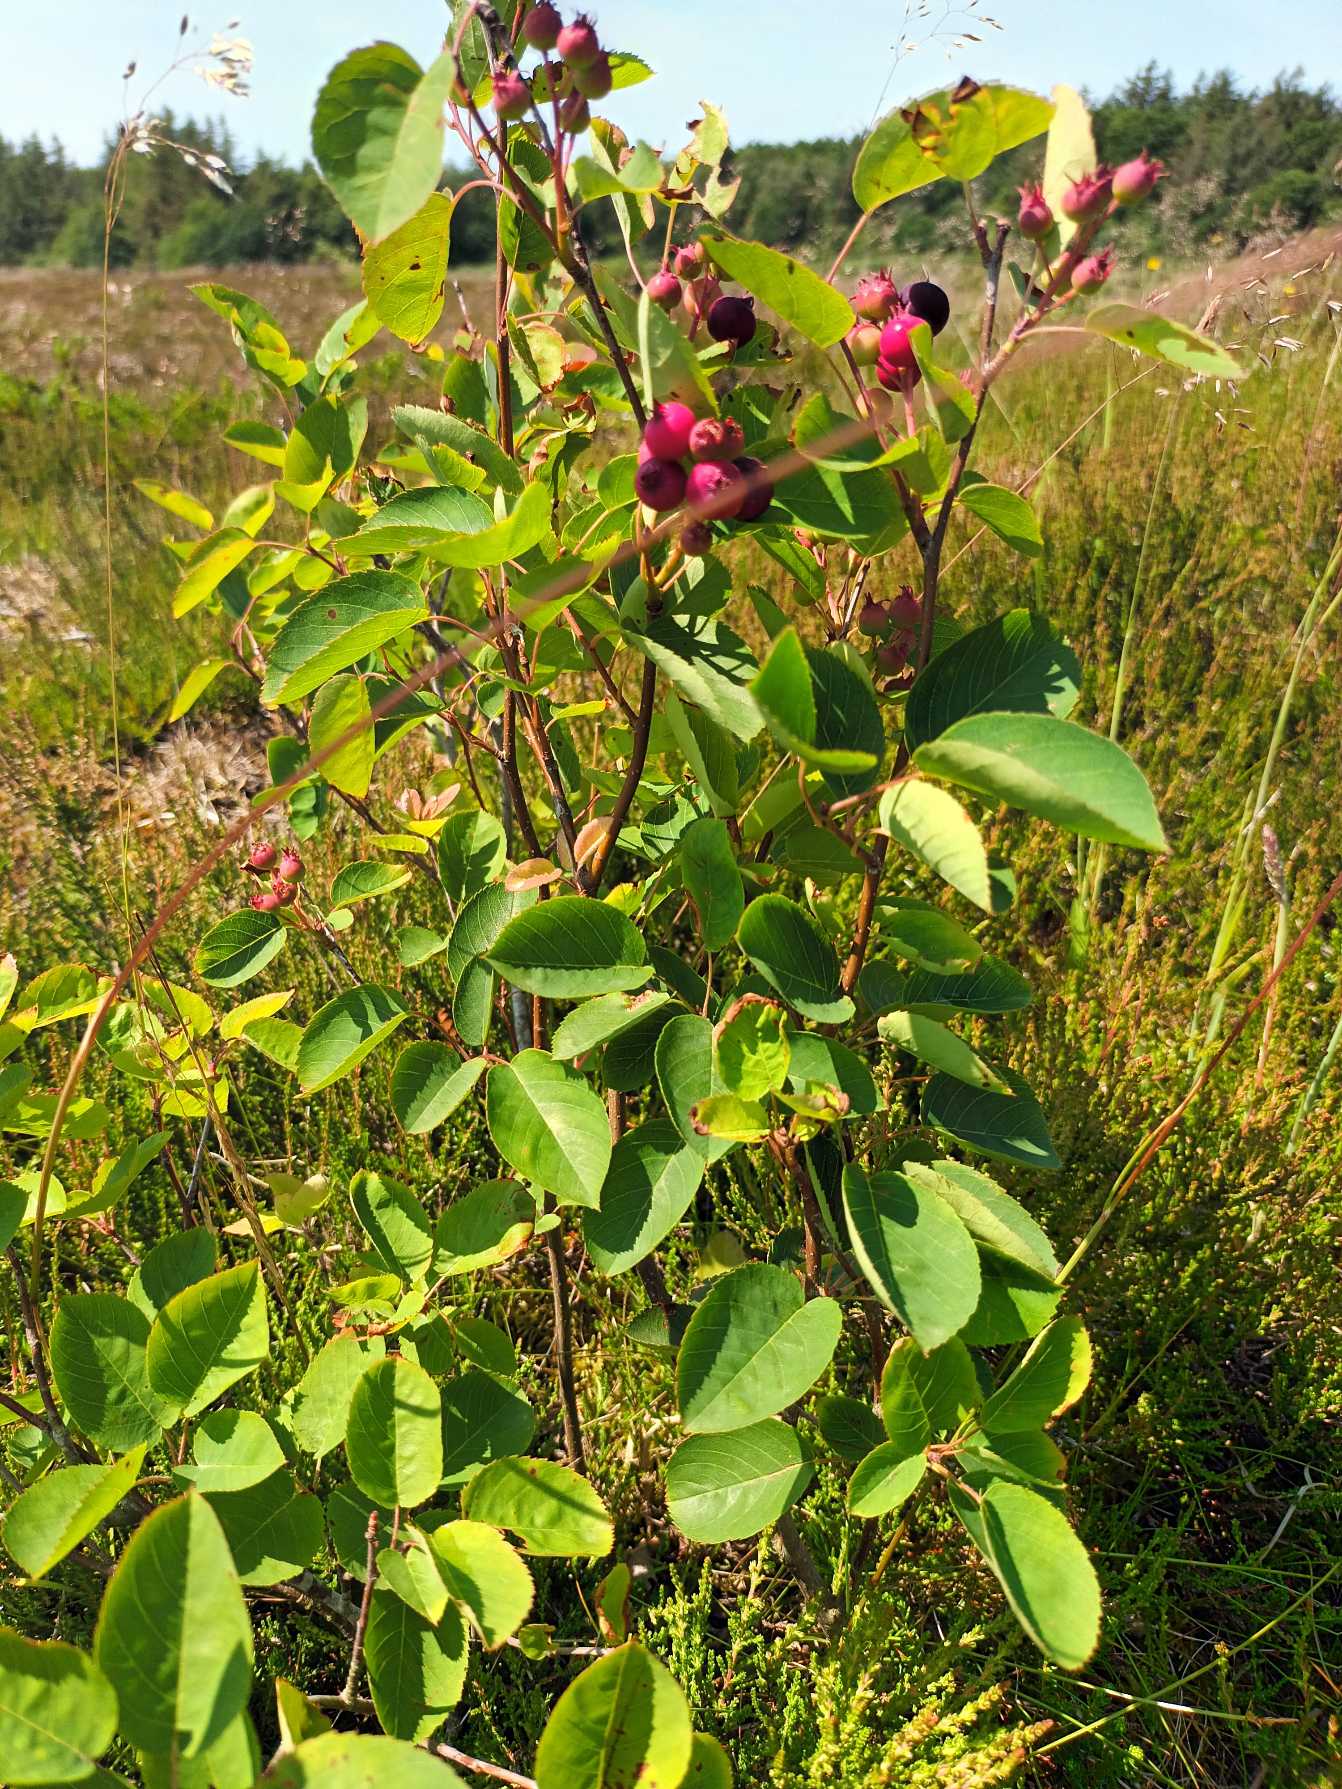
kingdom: Plantae
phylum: Tracheophyta
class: Magnoliopsida
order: Rosales
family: Rosaceae
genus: Amelanchier
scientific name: Amelanchier humilis
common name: Aks-bærmispel
